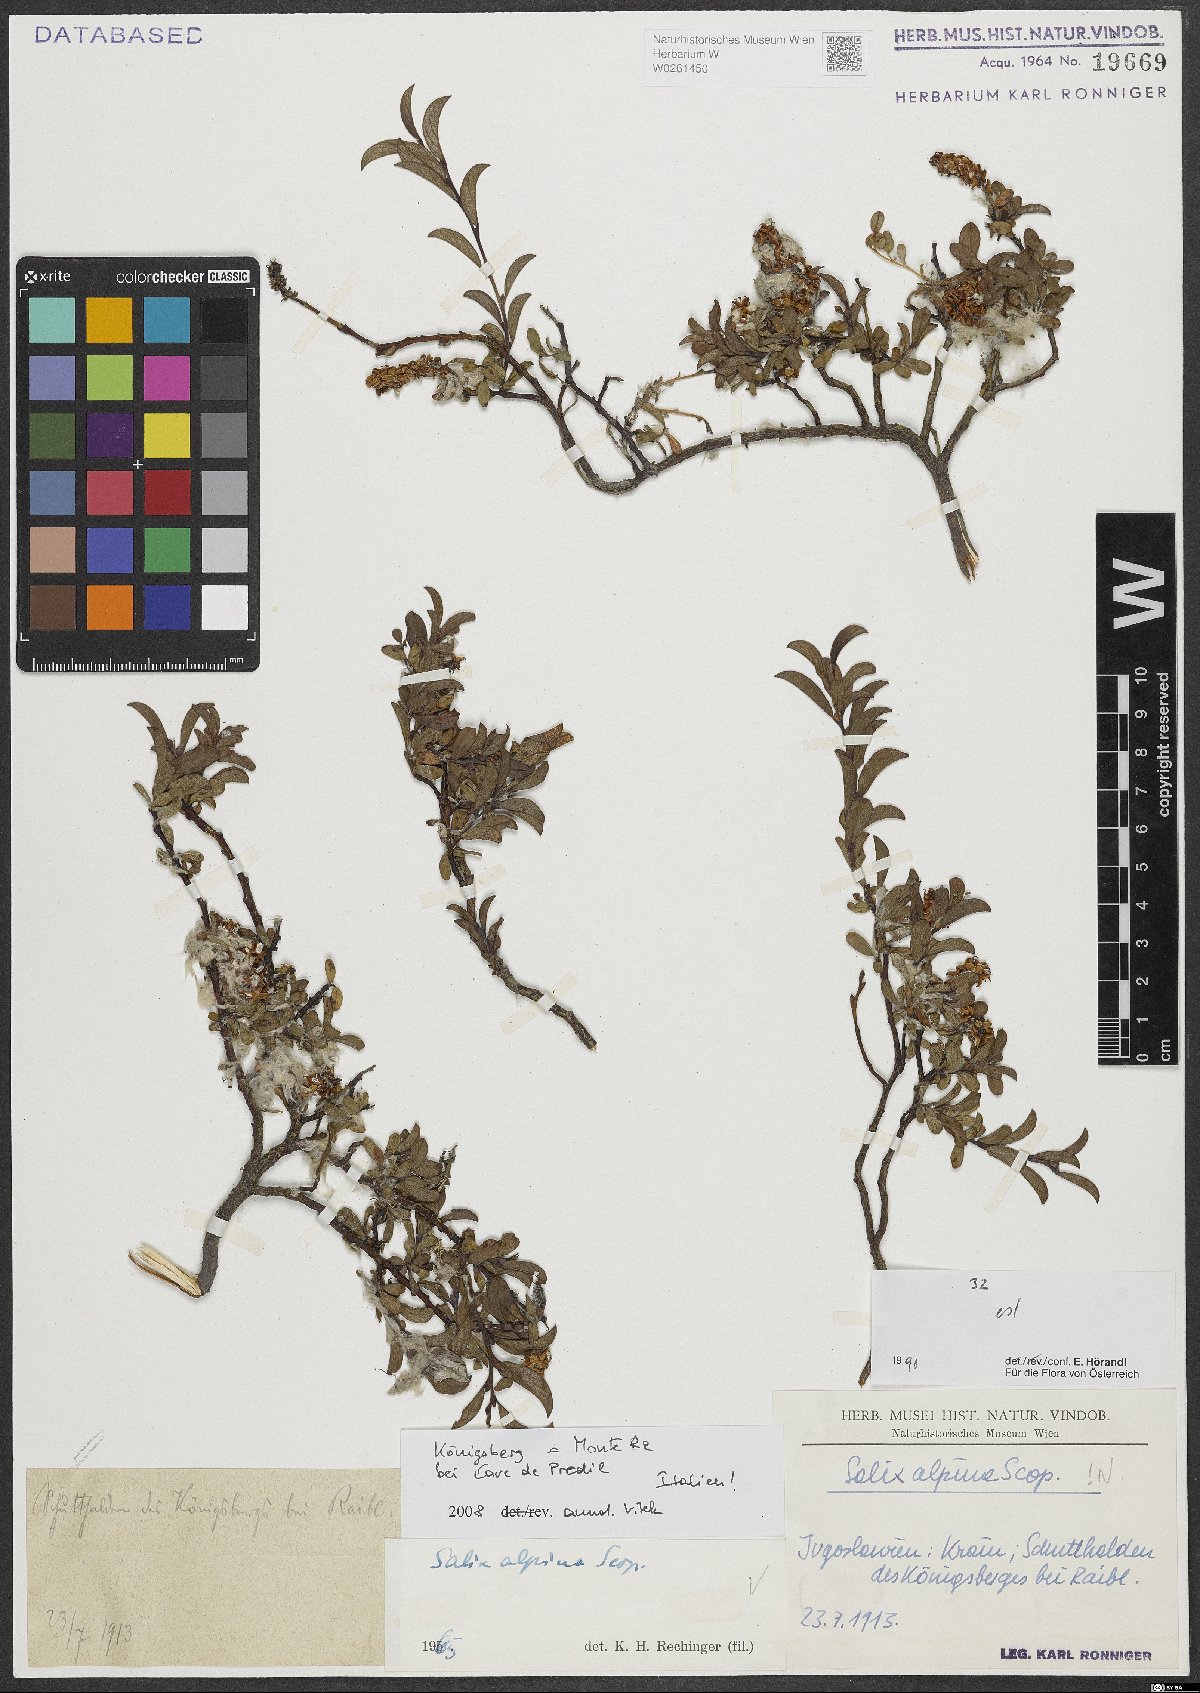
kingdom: Plantae
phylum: Tracheophyta
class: Magnoliopsida
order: Malpighiales
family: Salicaceae
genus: Salix
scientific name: Salix alpina
